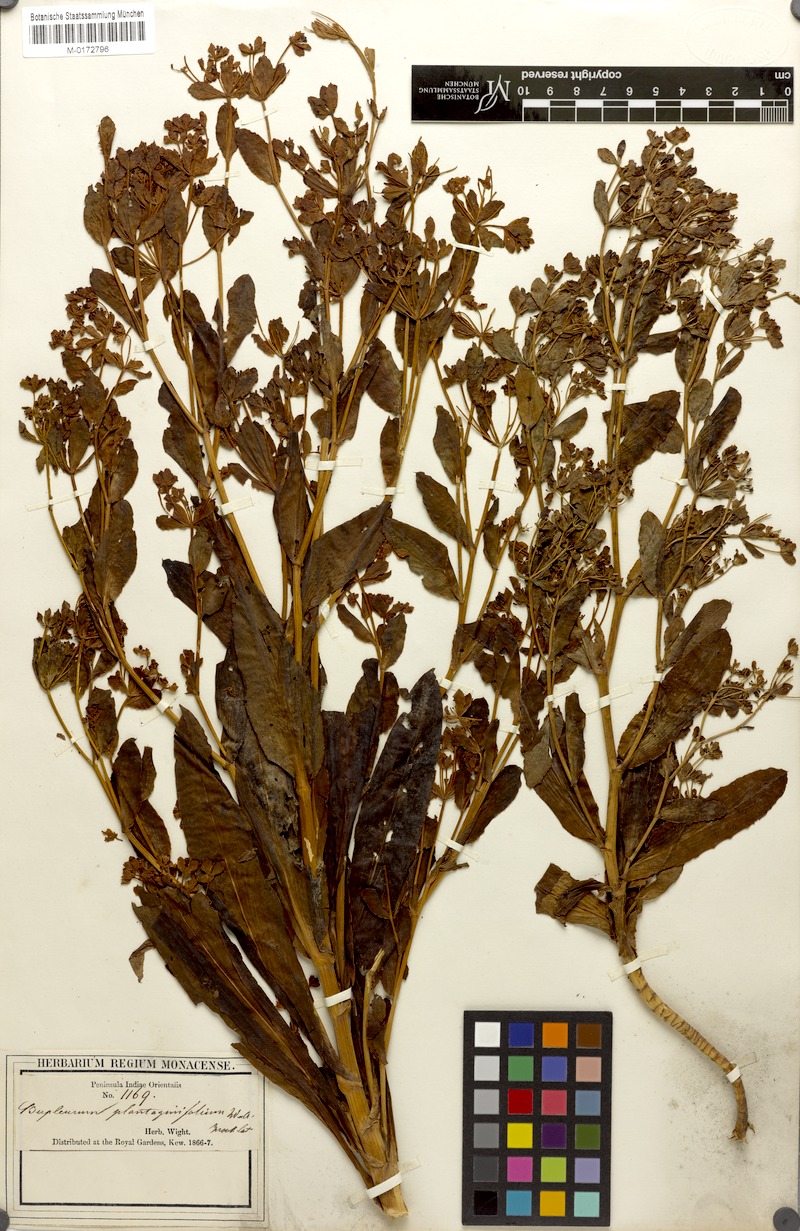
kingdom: Plantae
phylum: Tracheophyta
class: Magnoliopsida
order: Apiales
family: Apiaceae
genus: Bupleurum
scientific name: Bupleurum plantaginifolium
